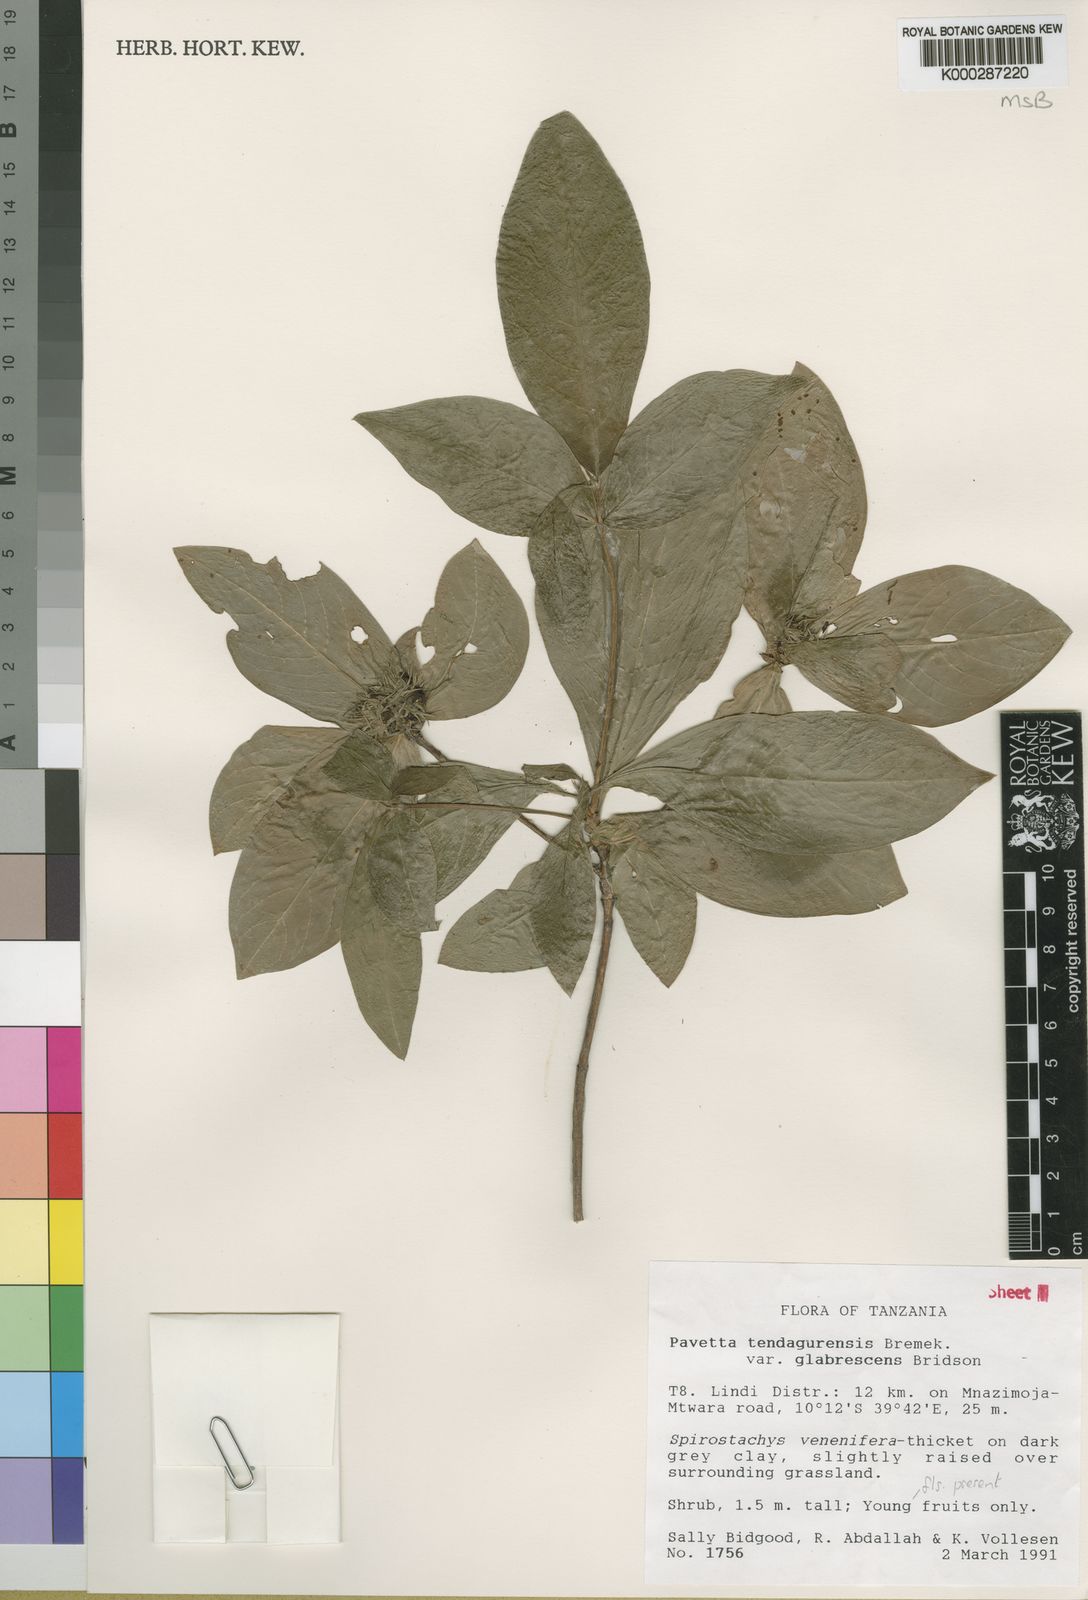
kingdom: Plantae
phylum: Tracheophyta
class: Magnoliopsida
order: Gentianales
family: Rubiaceae
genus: Pavetta
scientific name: Pavetta tendagurensis
